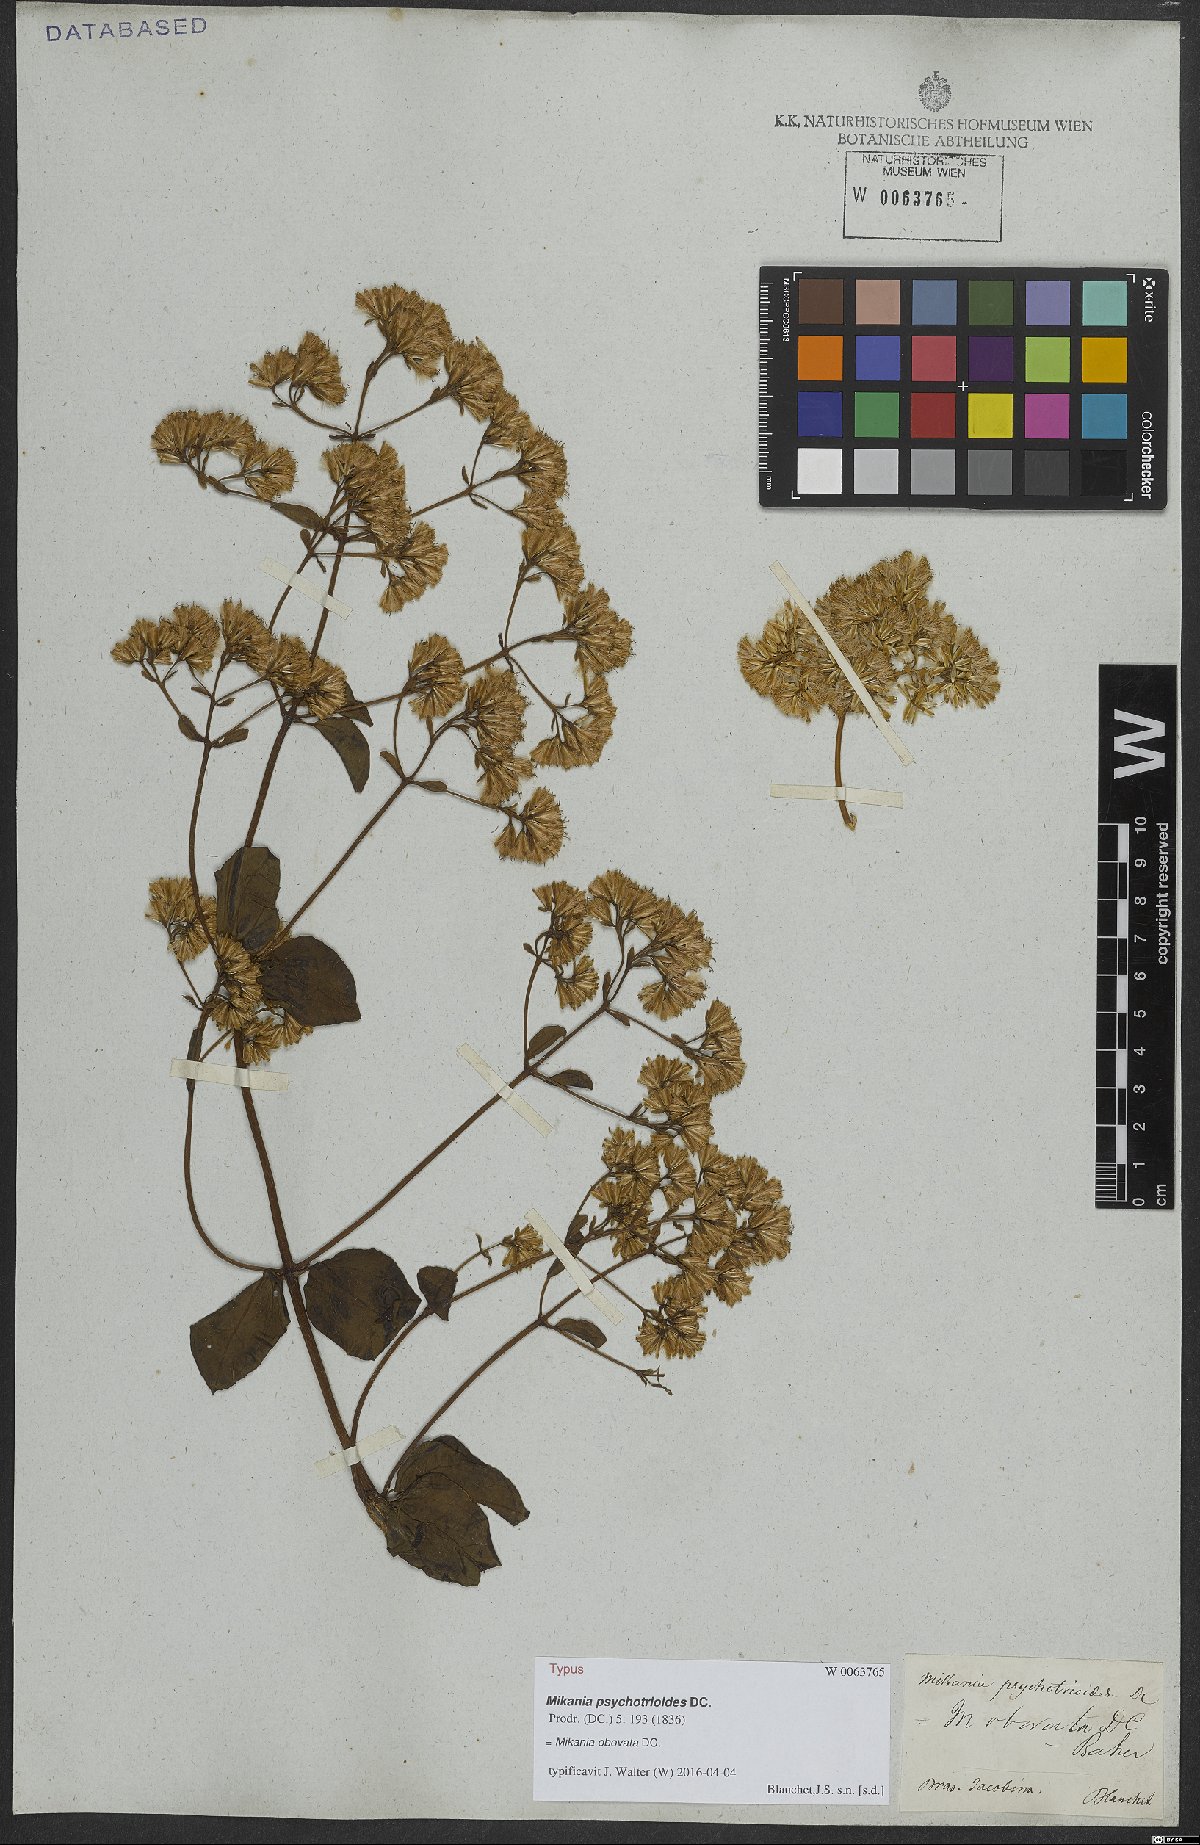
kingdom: Plantae
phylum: Tracheophyta
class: Magnoliopsida
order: Asterales
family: Asteraceae
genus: Mikania
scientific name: Mikania obovata
